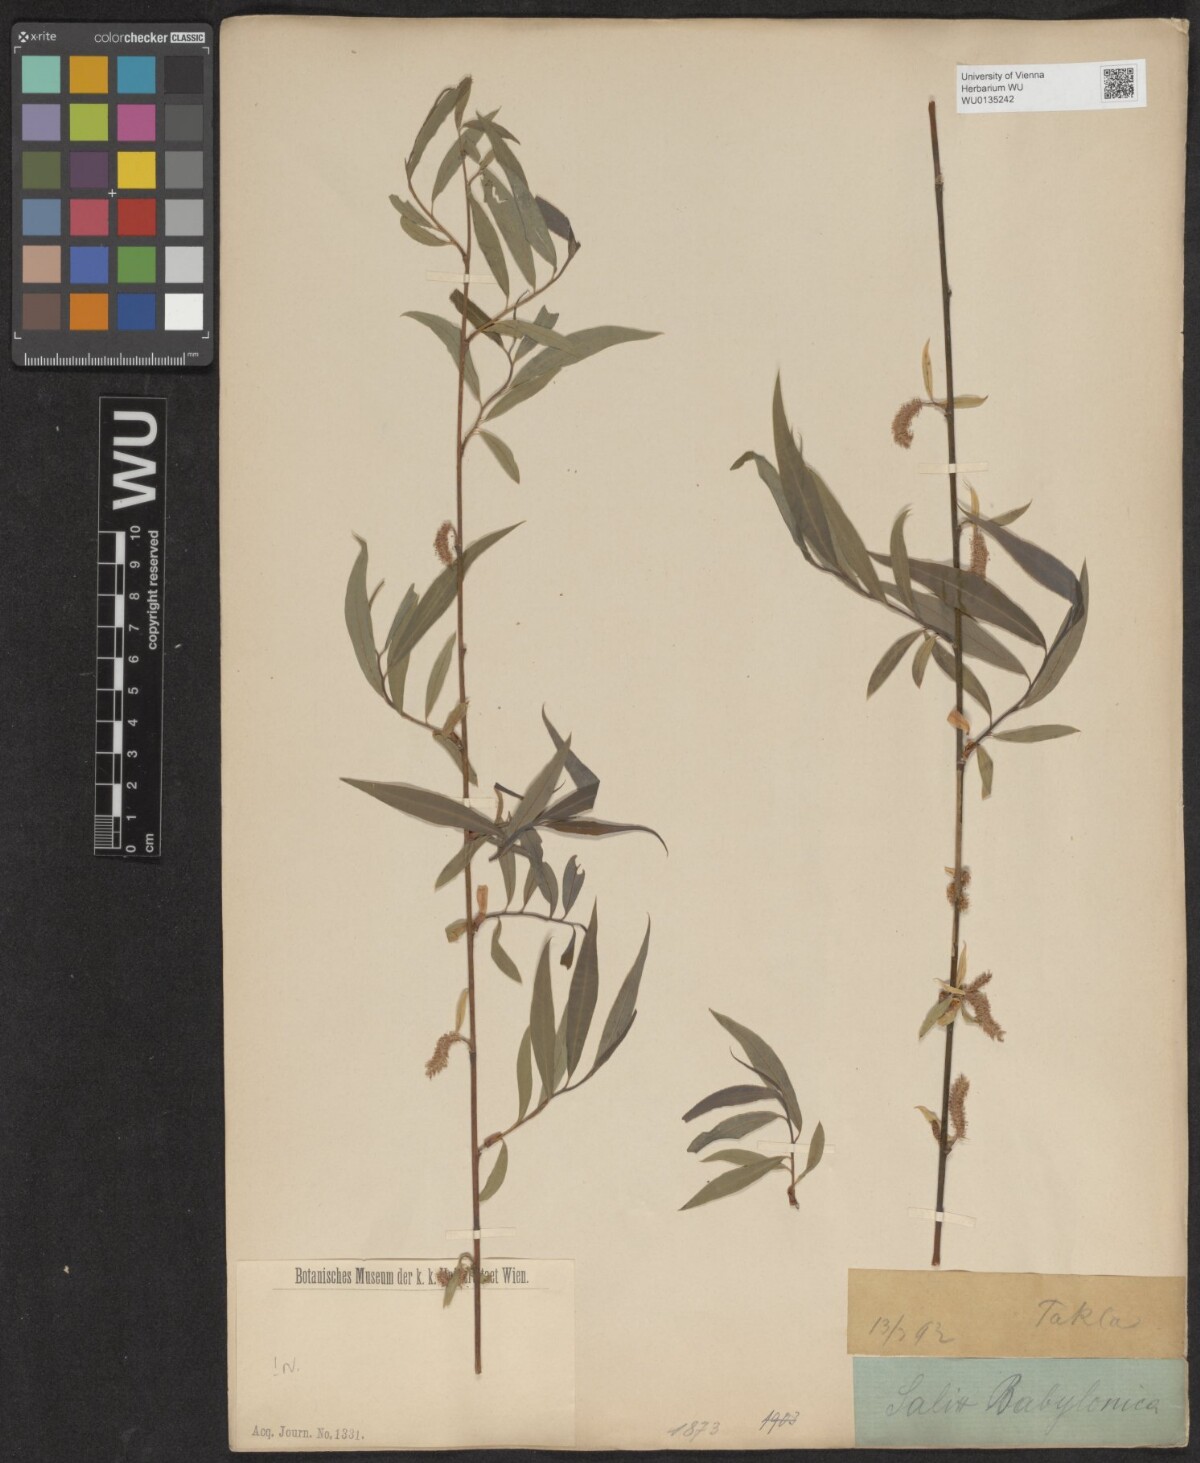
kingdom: Plantae
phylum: Tracheophyta
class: Magnoliopsida
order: Malpighiales
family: Salicaceae
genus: Salix
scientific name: Salix babylonica
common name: Weeping willow
